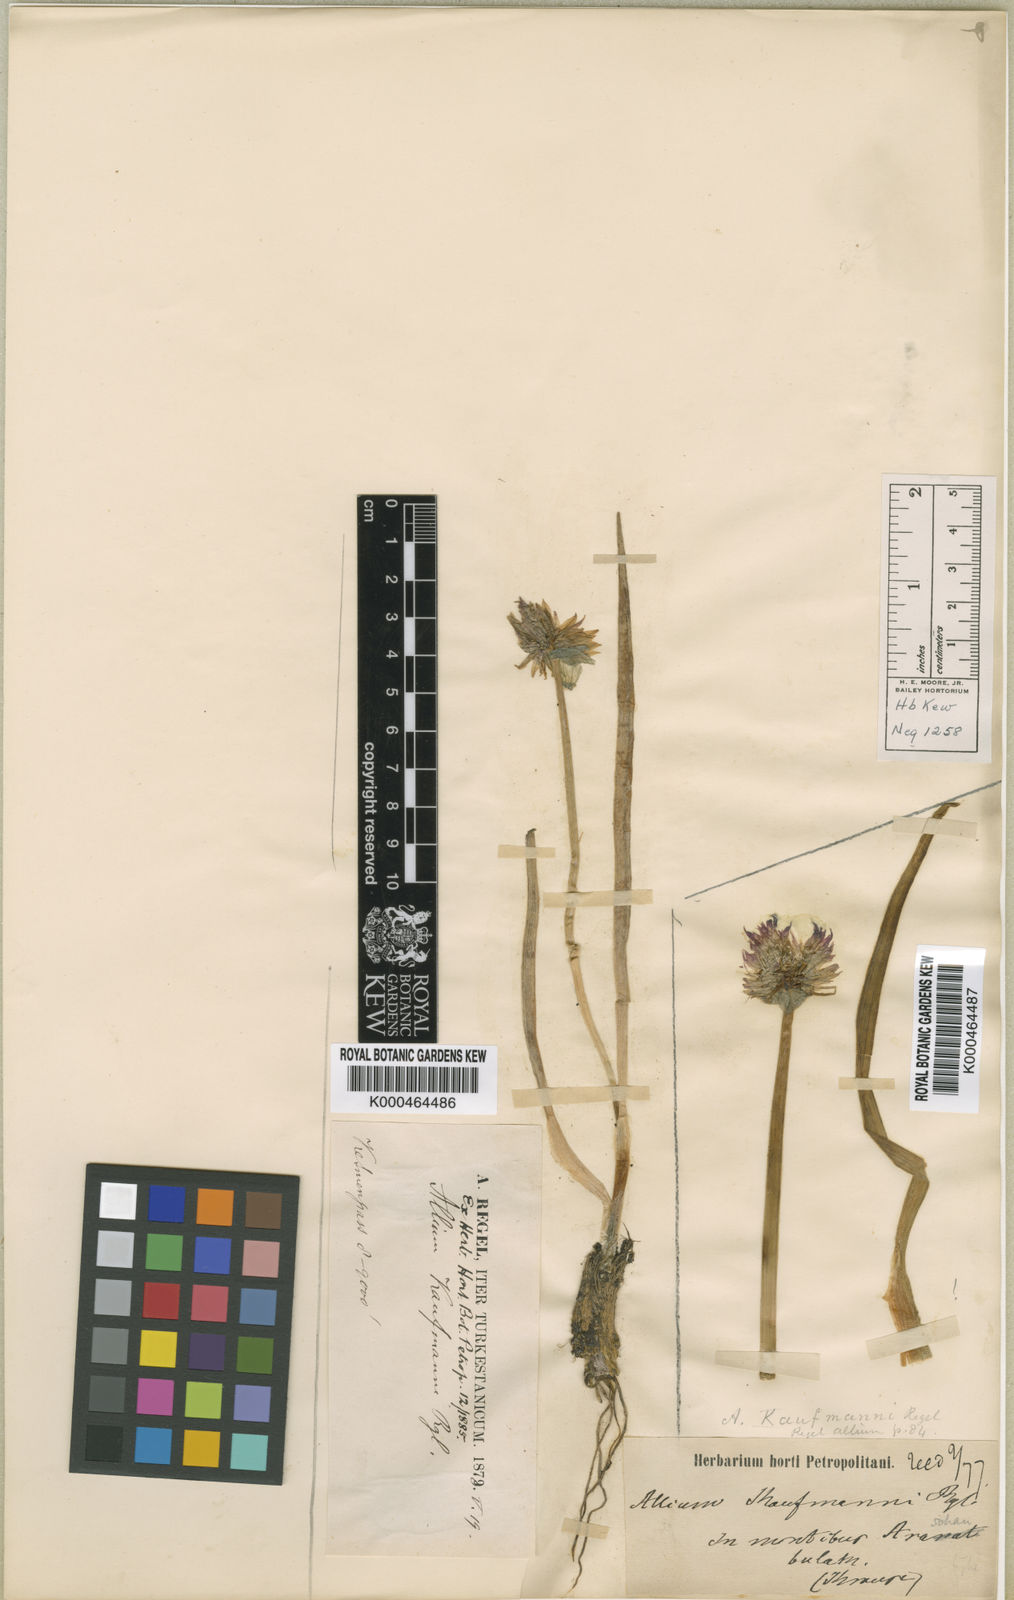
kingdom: Plantae
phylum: Tracheophyta
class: Liliopsida
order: Asparagales
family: Amaryllidaceae
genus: Allium
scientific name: Allium atrosanguineum
